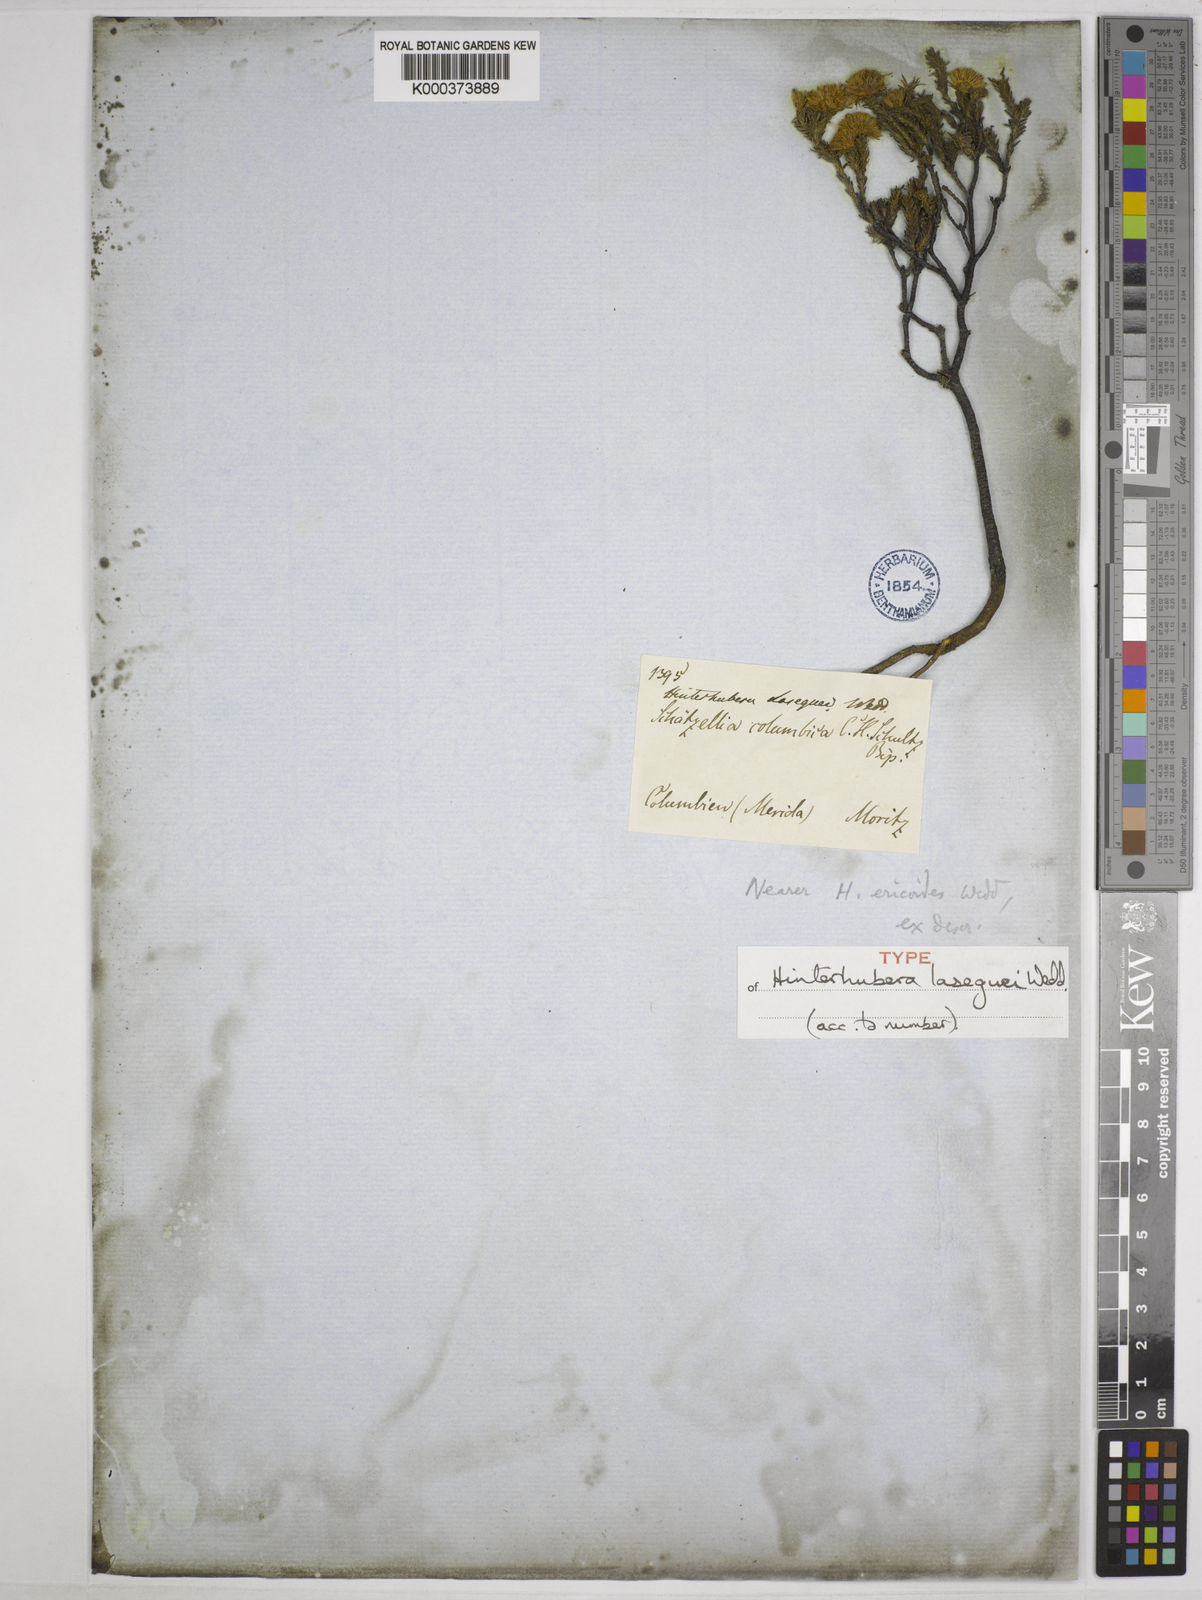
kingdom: Plantae
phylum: Tracheophyta
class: Magnoliopsida
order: Asterales
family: Asteraceae
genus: Hinterhubera
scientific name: Hinterhubera ericoides
